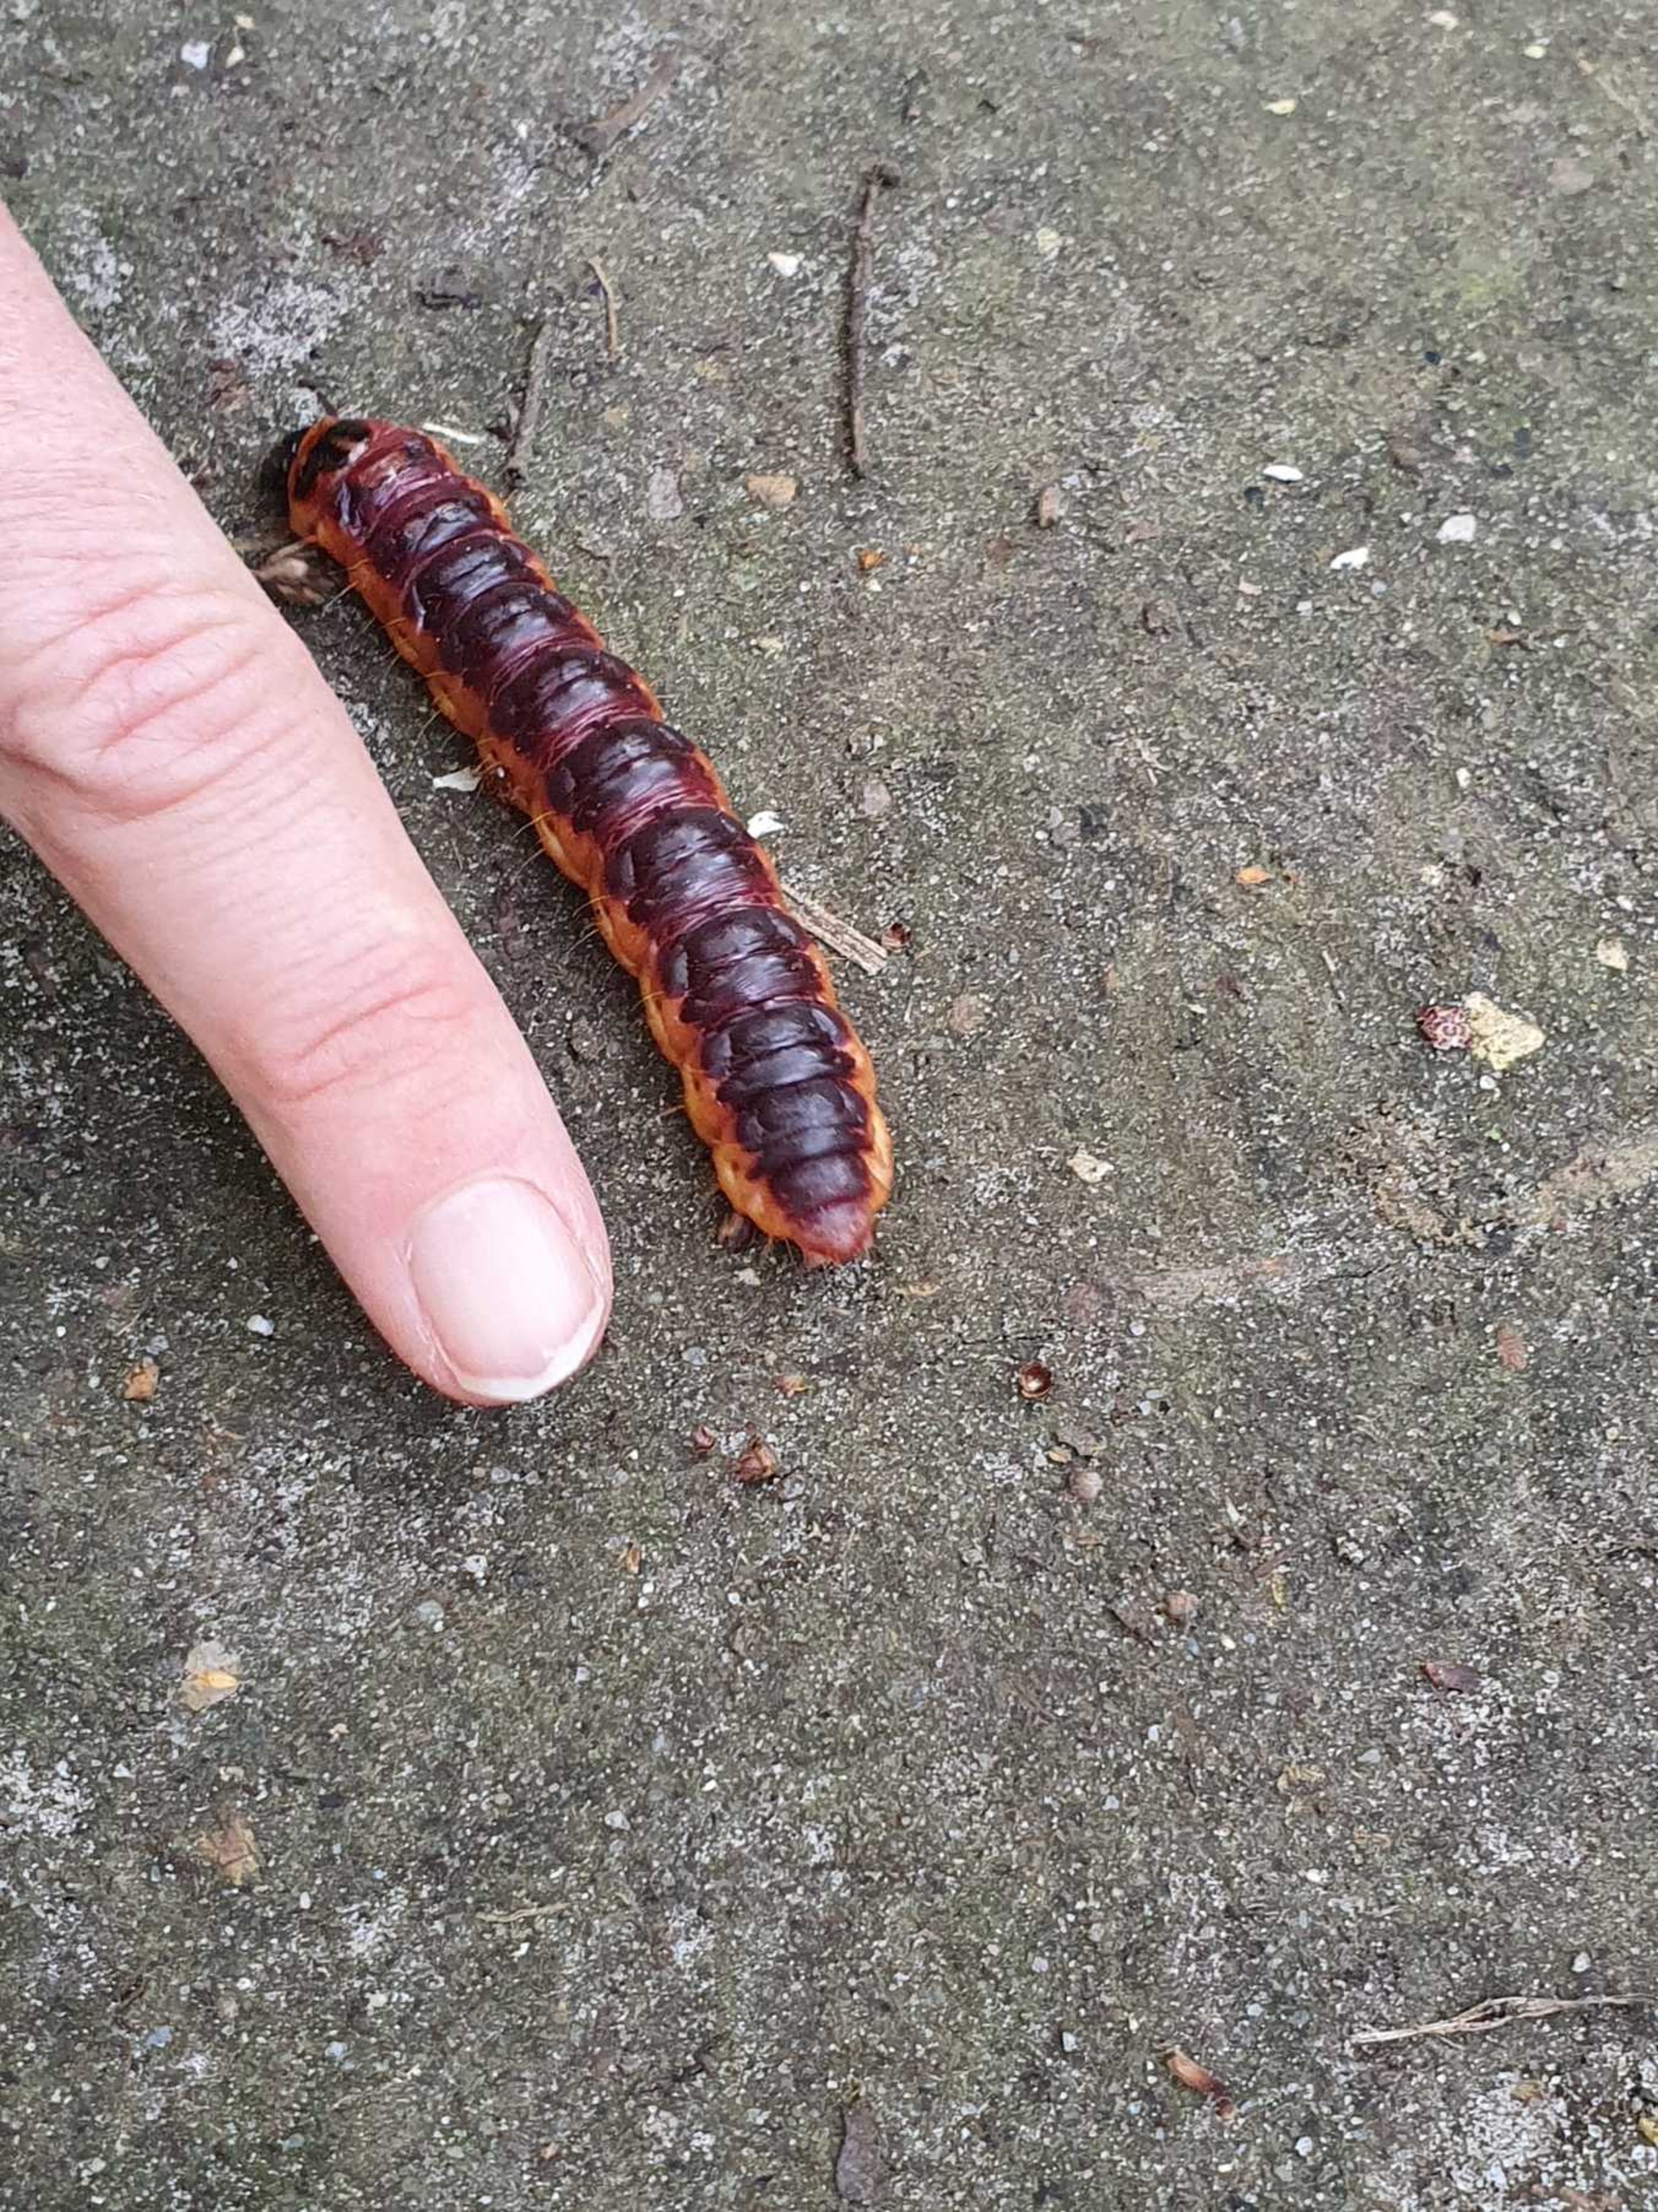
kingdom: Animalia
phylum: Arthropoda
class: Insecta
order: Lepidoptera
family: Cossidae
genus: Cossus
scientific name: Cossus cossus
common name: Pileborer
